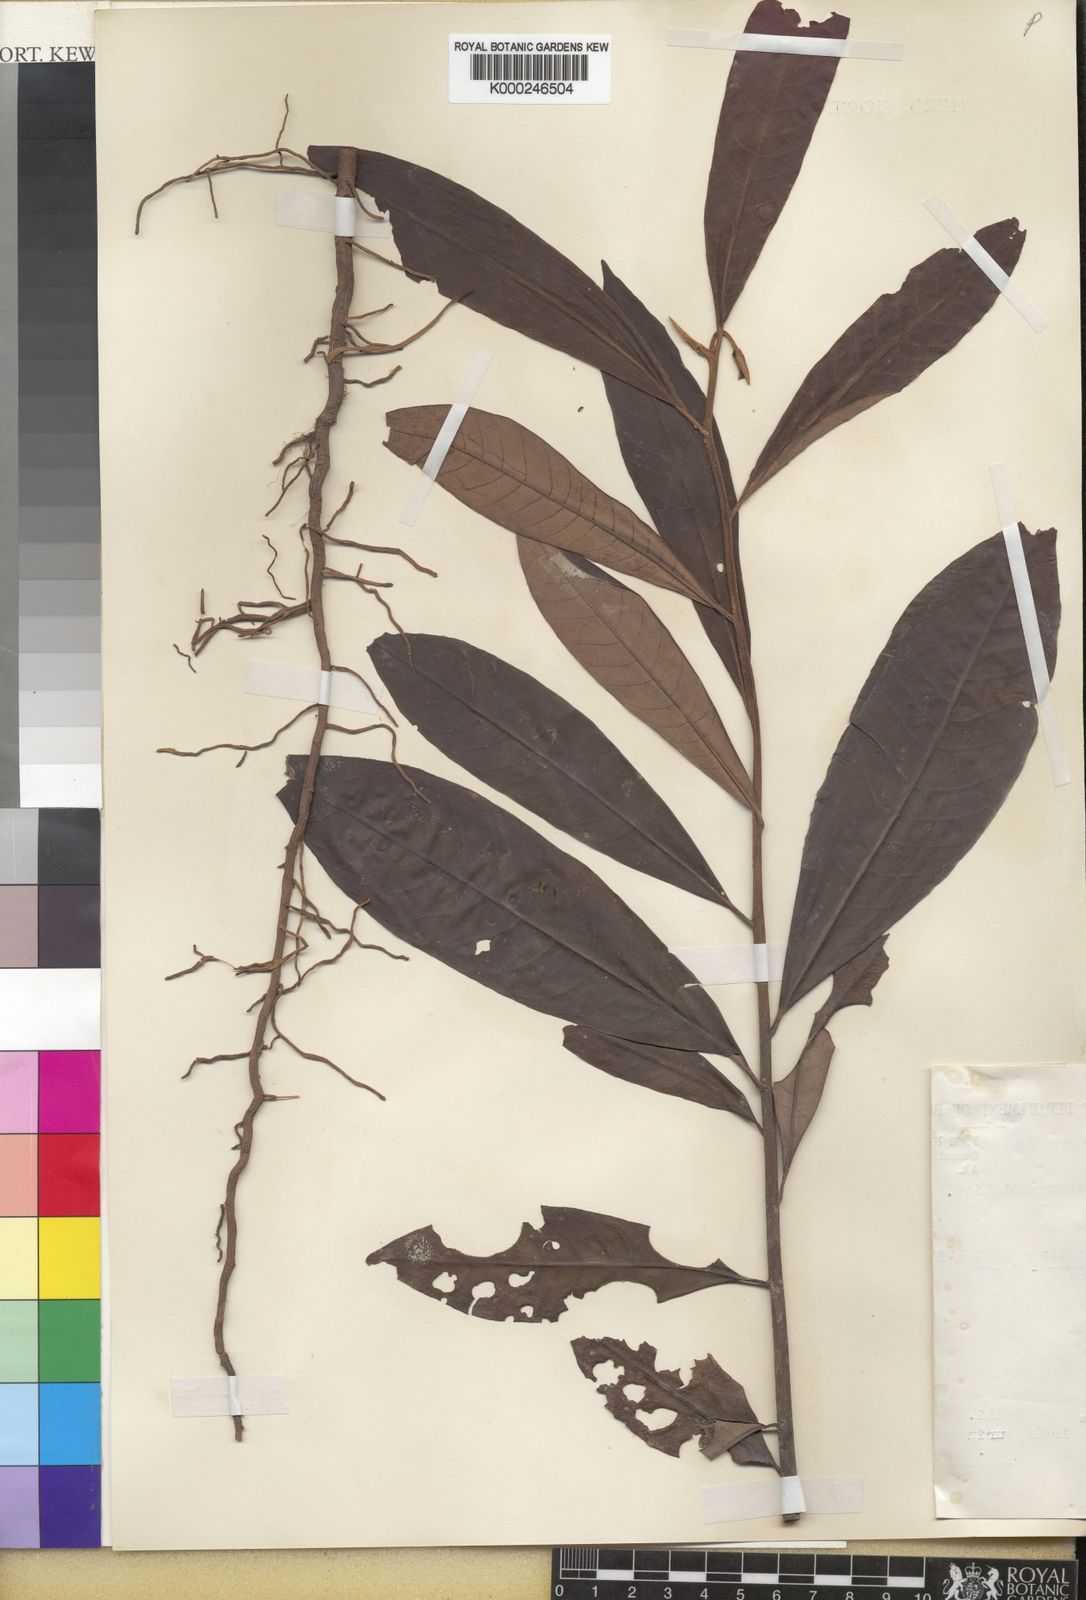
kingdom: Plantae
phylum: Tracheophyta
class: Magnoliopsida
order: Magnoliales
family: Myristicaceae
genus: Virola
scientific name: Virola surinamensis
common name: Baboonwood
